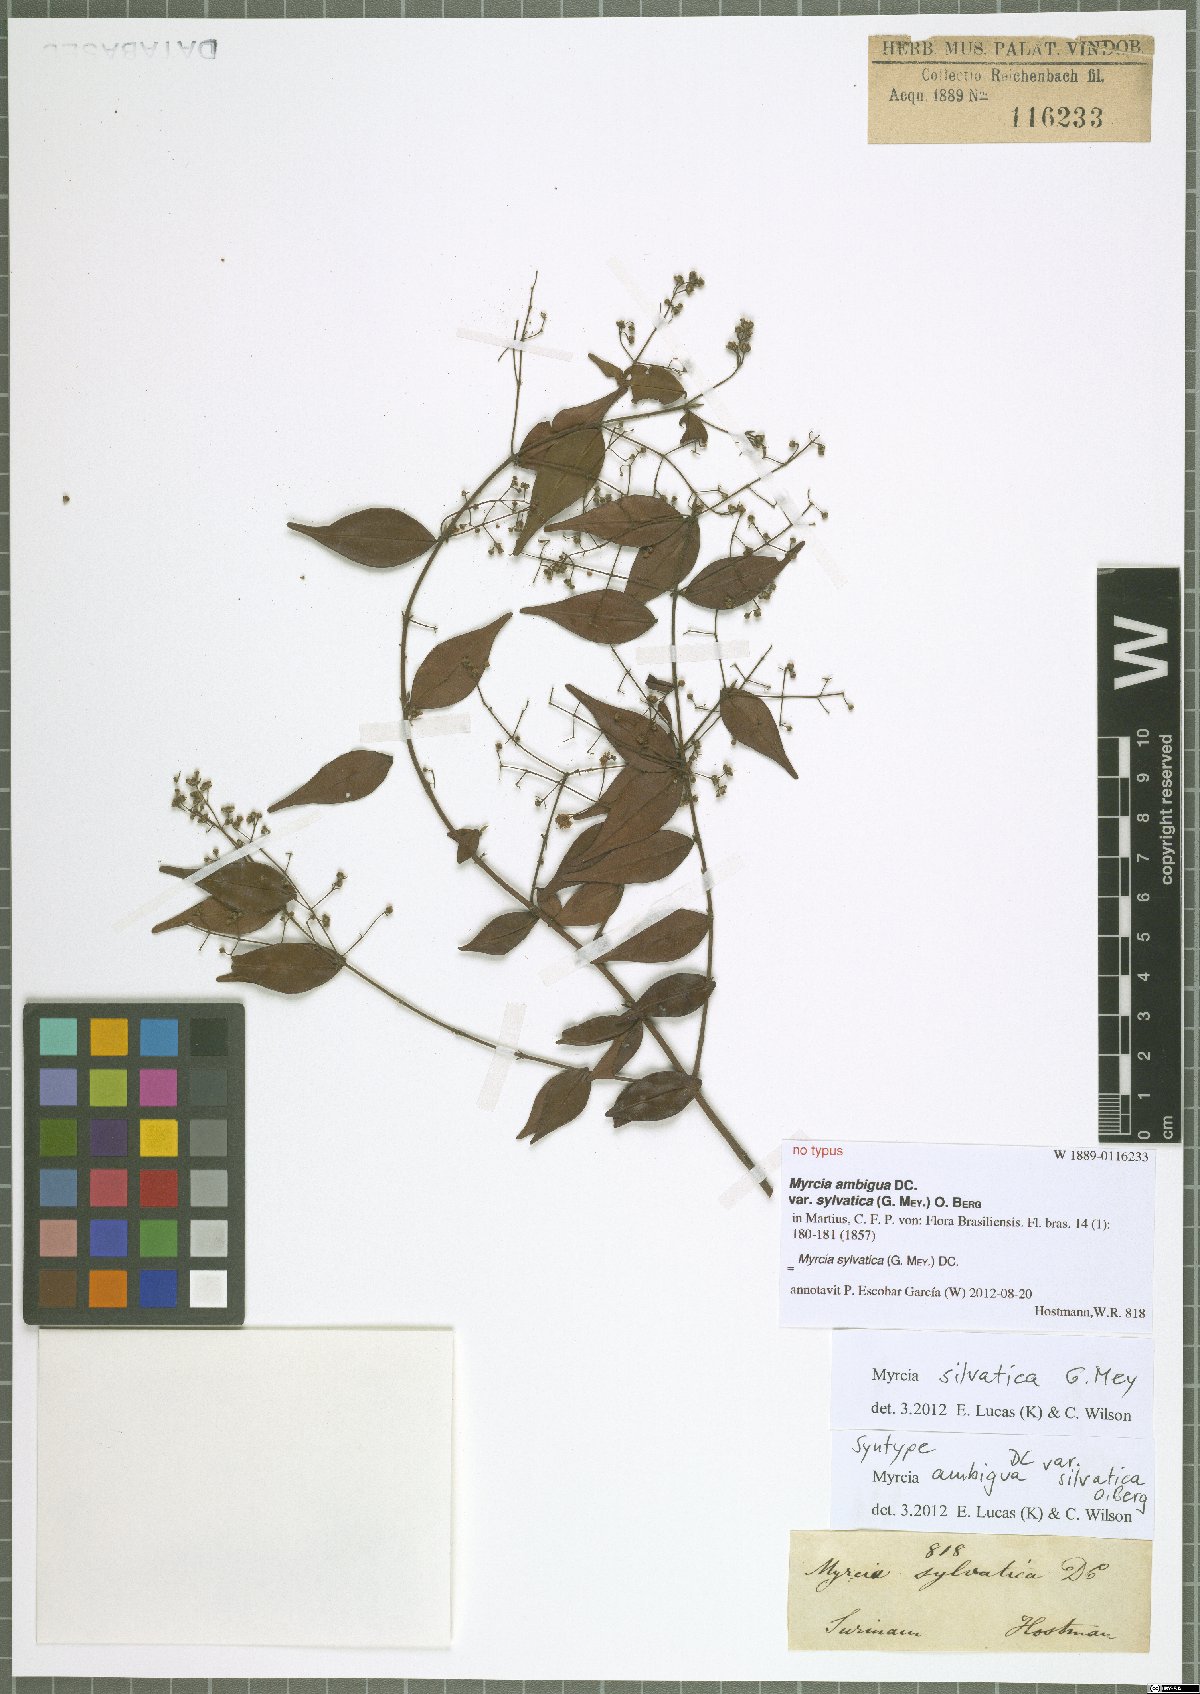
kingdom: Plantae
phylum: Tracheophyta
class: Magnoliopsida
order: Myrtales
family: Myrtaceae
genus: Myrcia
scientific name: Myrcia sylvatica
